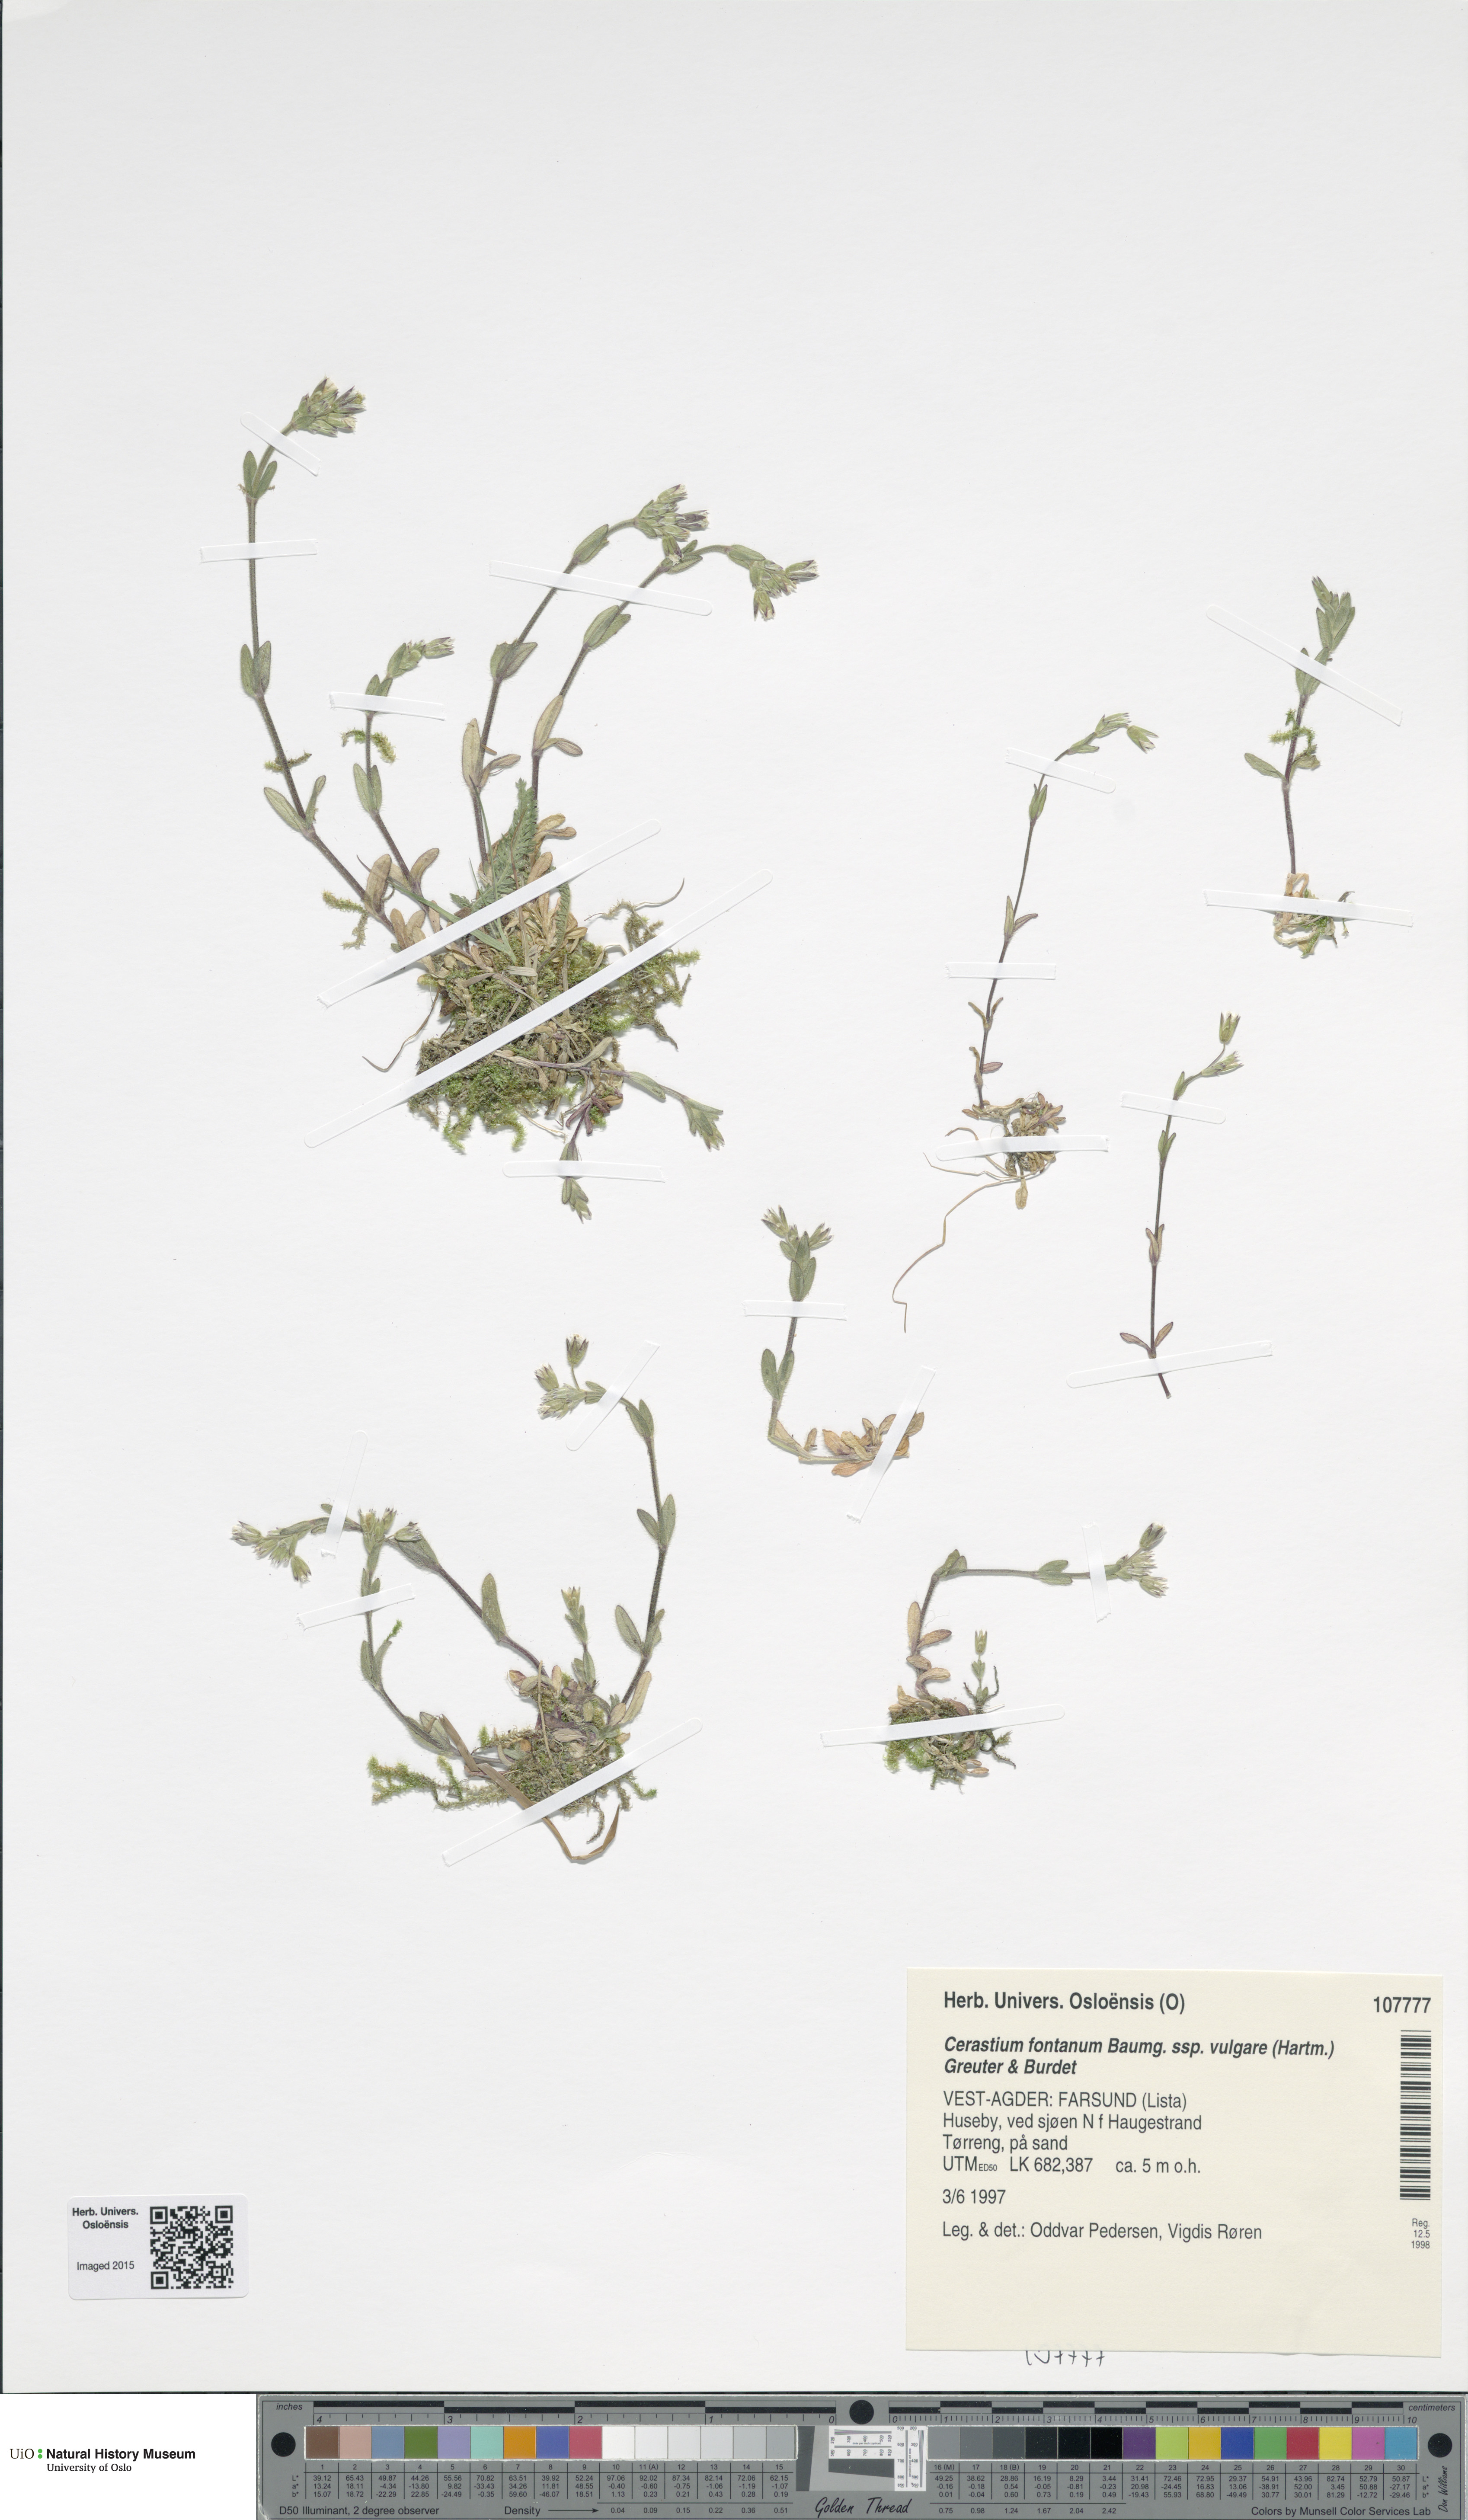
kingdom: Plantae
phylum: Tracheophyta
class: Magnoliopsida
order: Caryophyllales
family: Caryophyllaceae
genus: Cerastium
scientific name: Cerastium holosteoides
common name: Big chickweed
